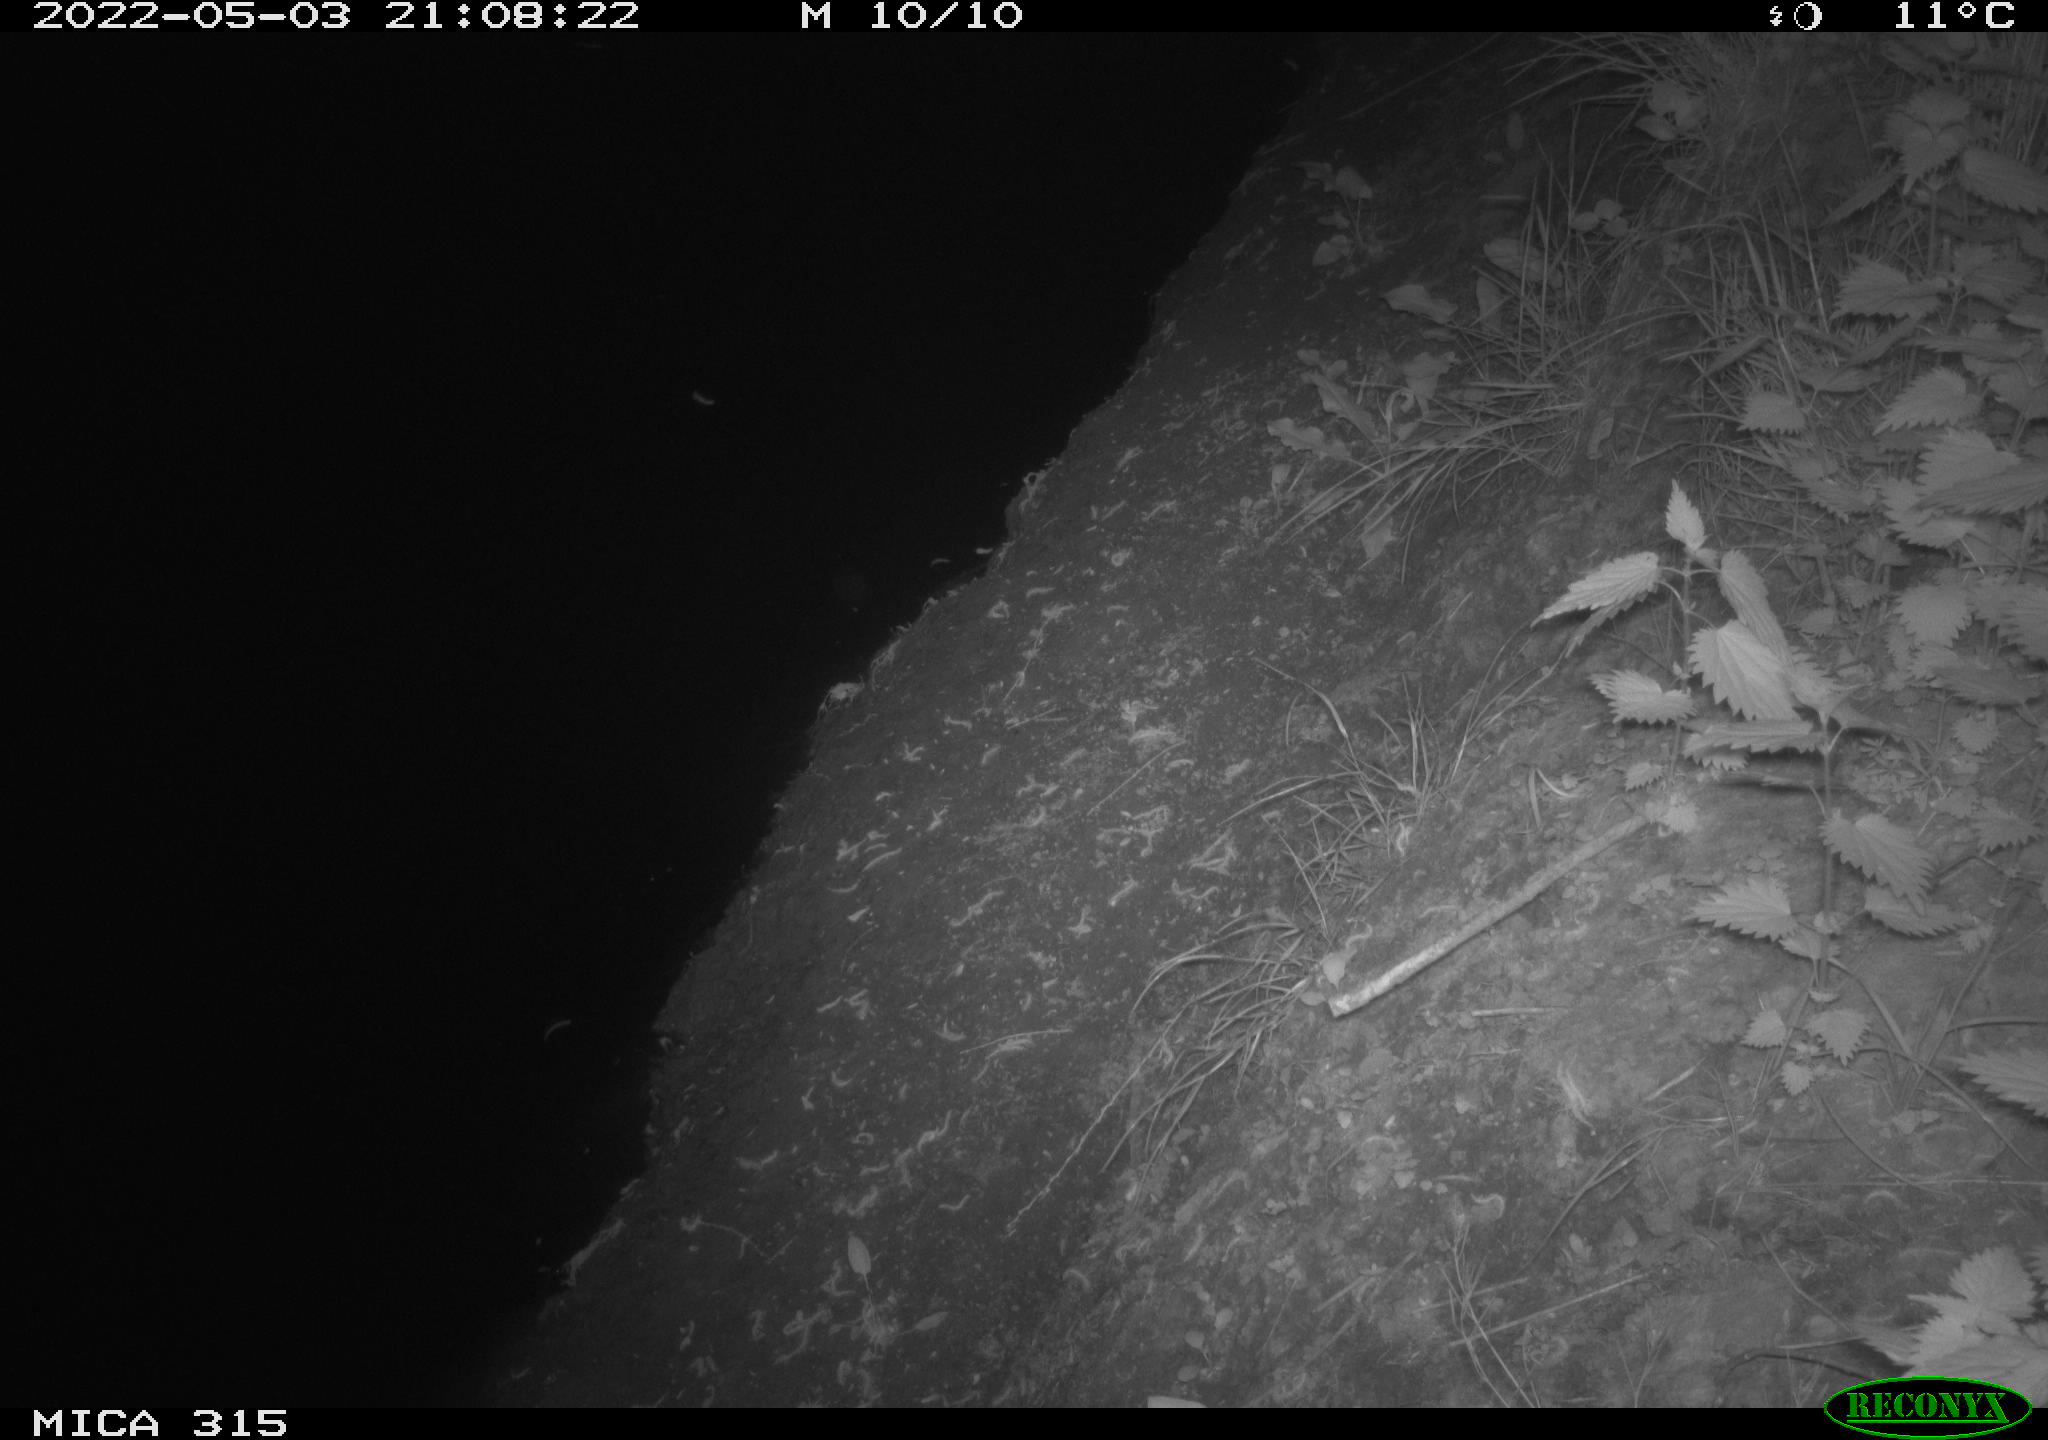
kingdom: Animalia
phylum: Chordata
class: Aves
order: Anseriformes
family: Anatidae
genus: Anas
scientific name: Anas platyrhynchos
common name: Mallard
